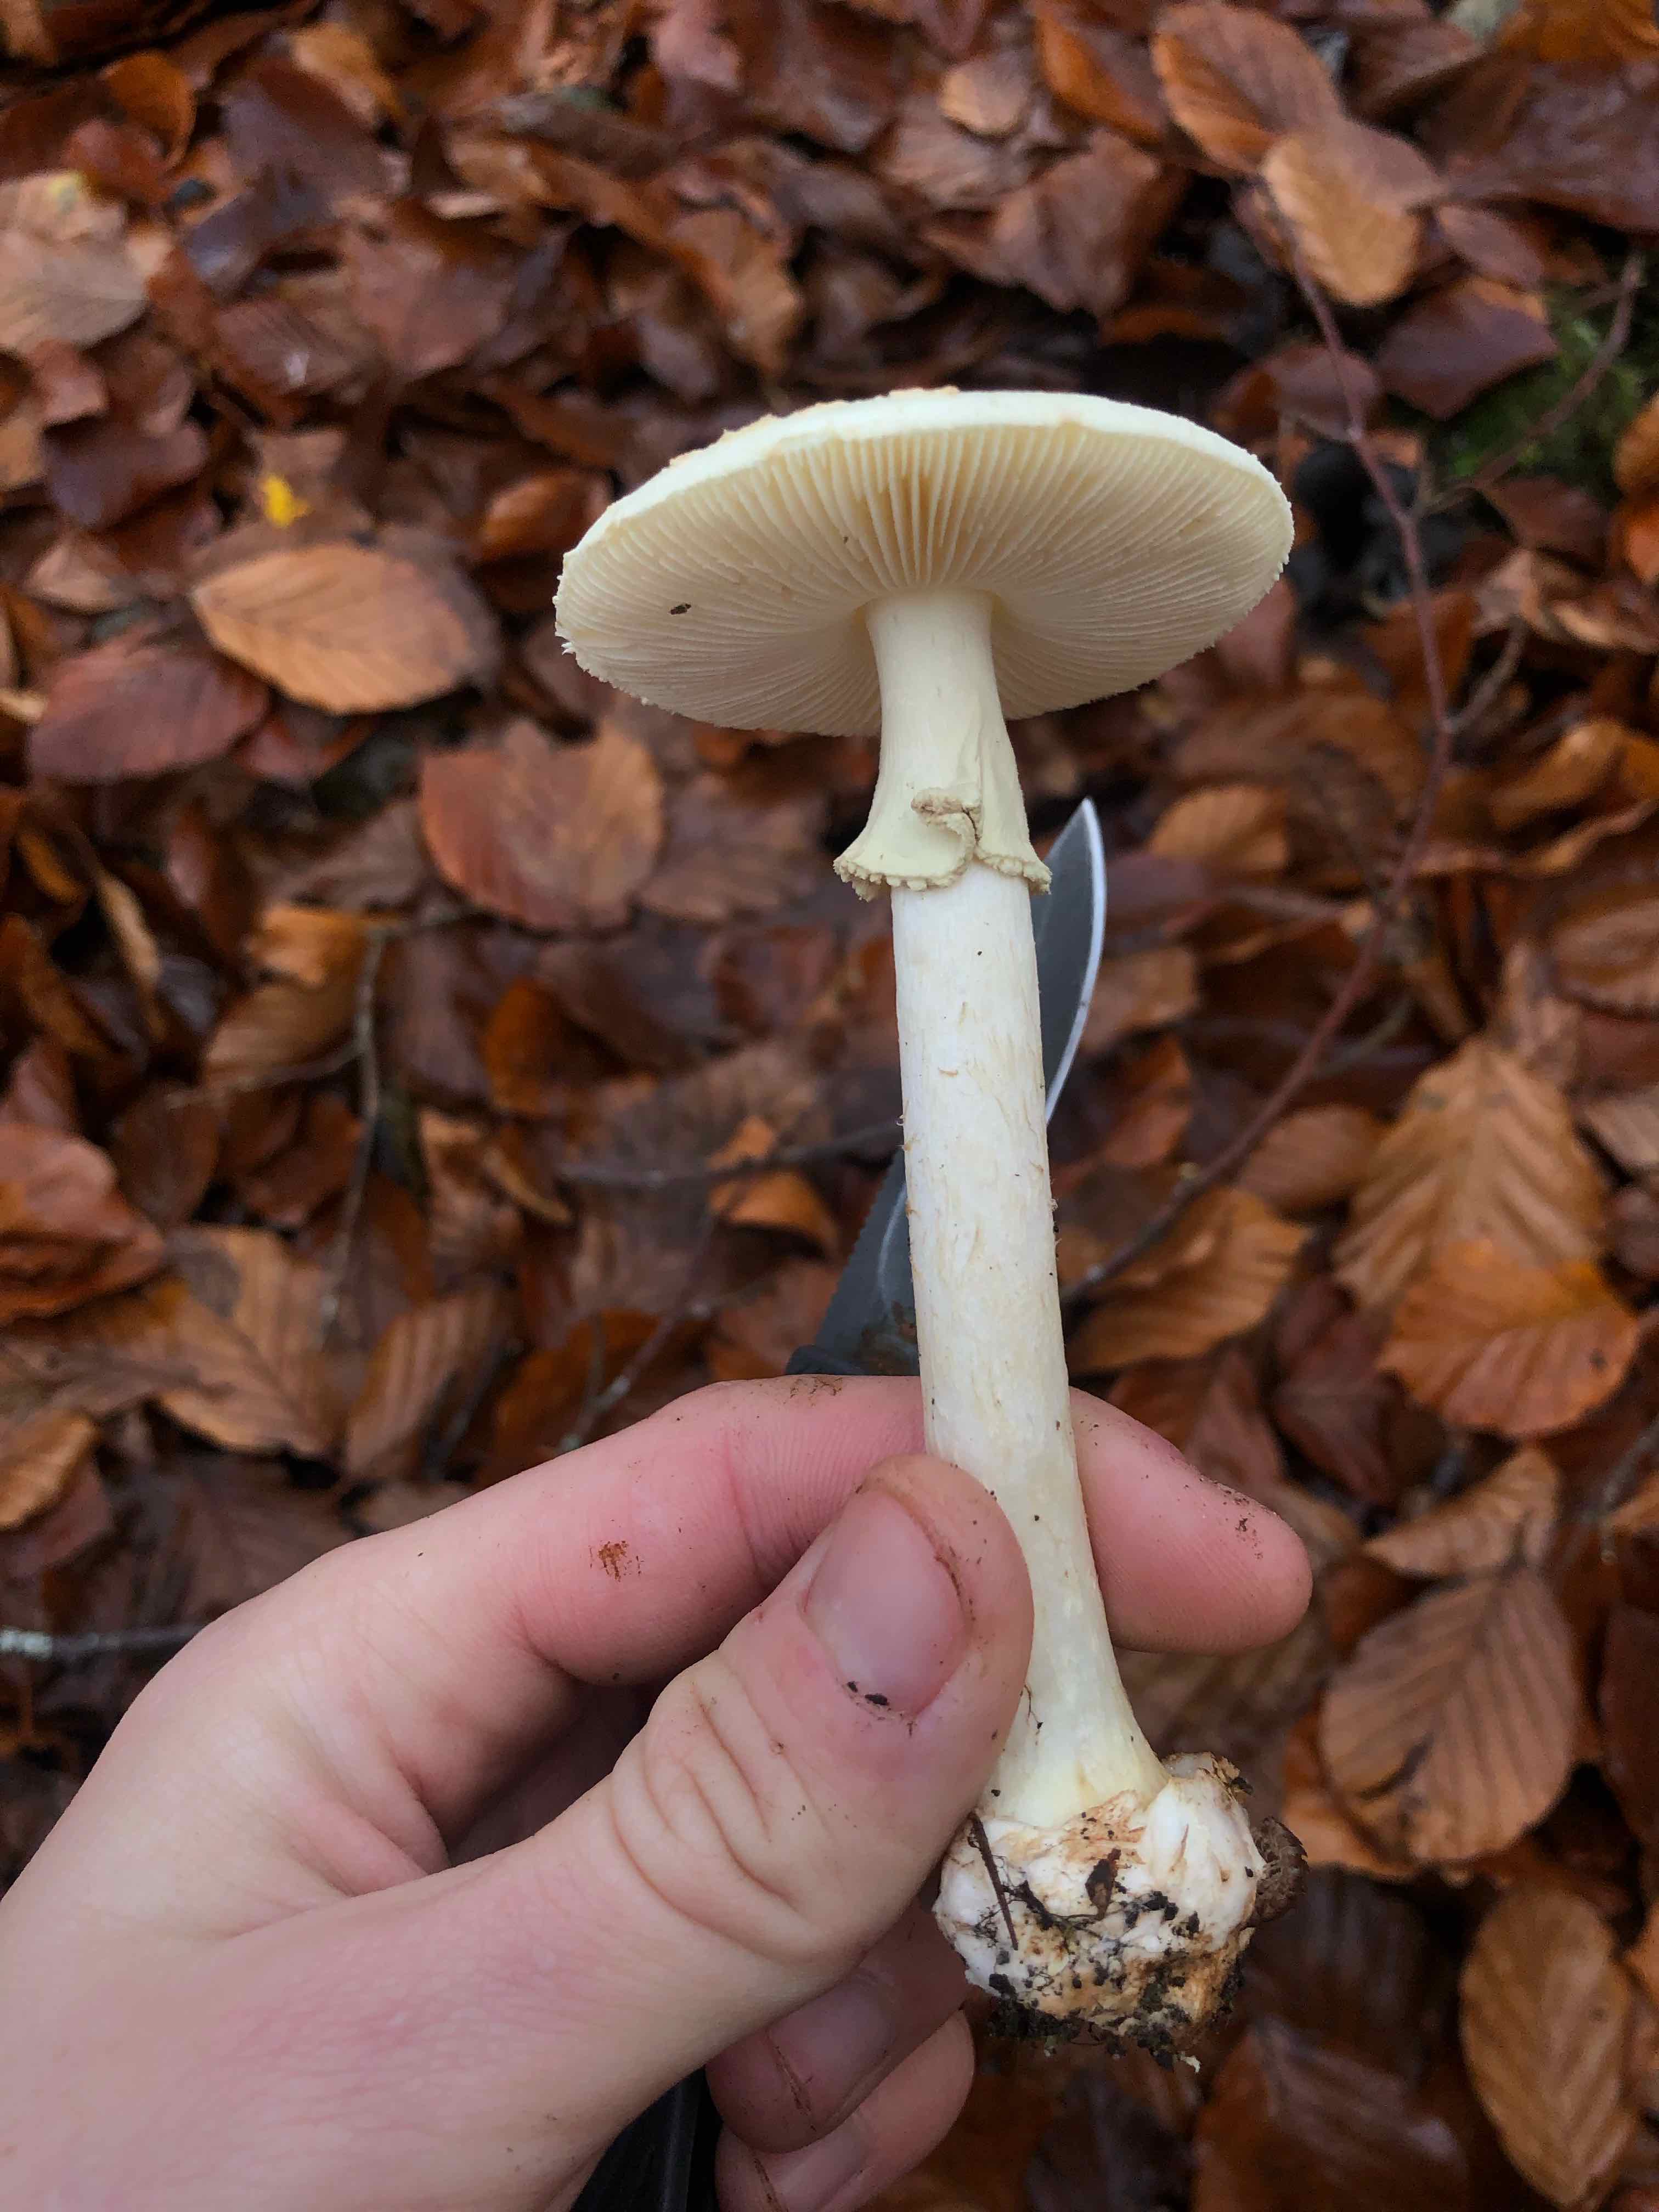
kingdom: Fungi
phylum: Basidiomycota
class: Agaricomycetes
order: Agaricales
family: Amanitaceae
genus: Amanita
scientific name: Amanita citrina
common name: False death-cap
